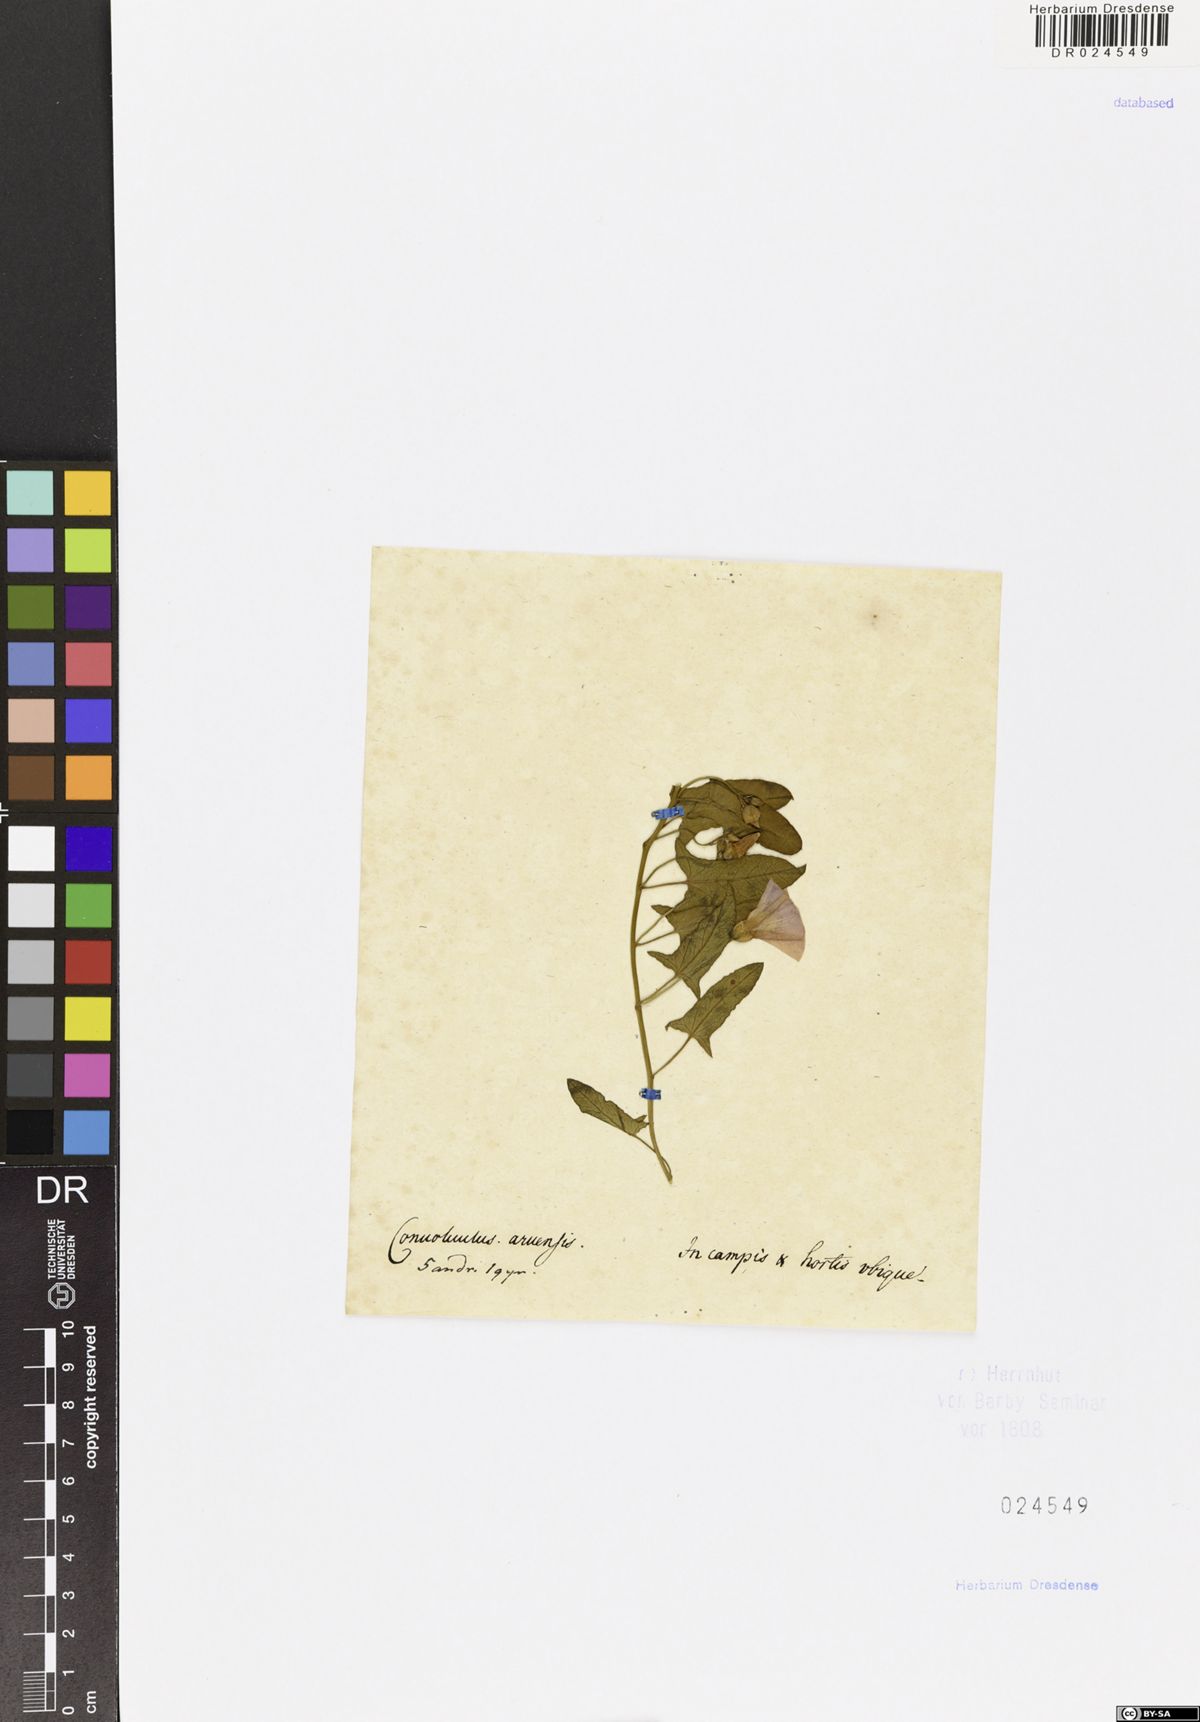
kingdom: Plantae
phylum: Tracheophyta
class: Magnoliopsida
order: Solanales
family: Convolvulaceae
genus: Convolvulus
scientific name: Convolvulus arvensis
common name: Field bindweed
